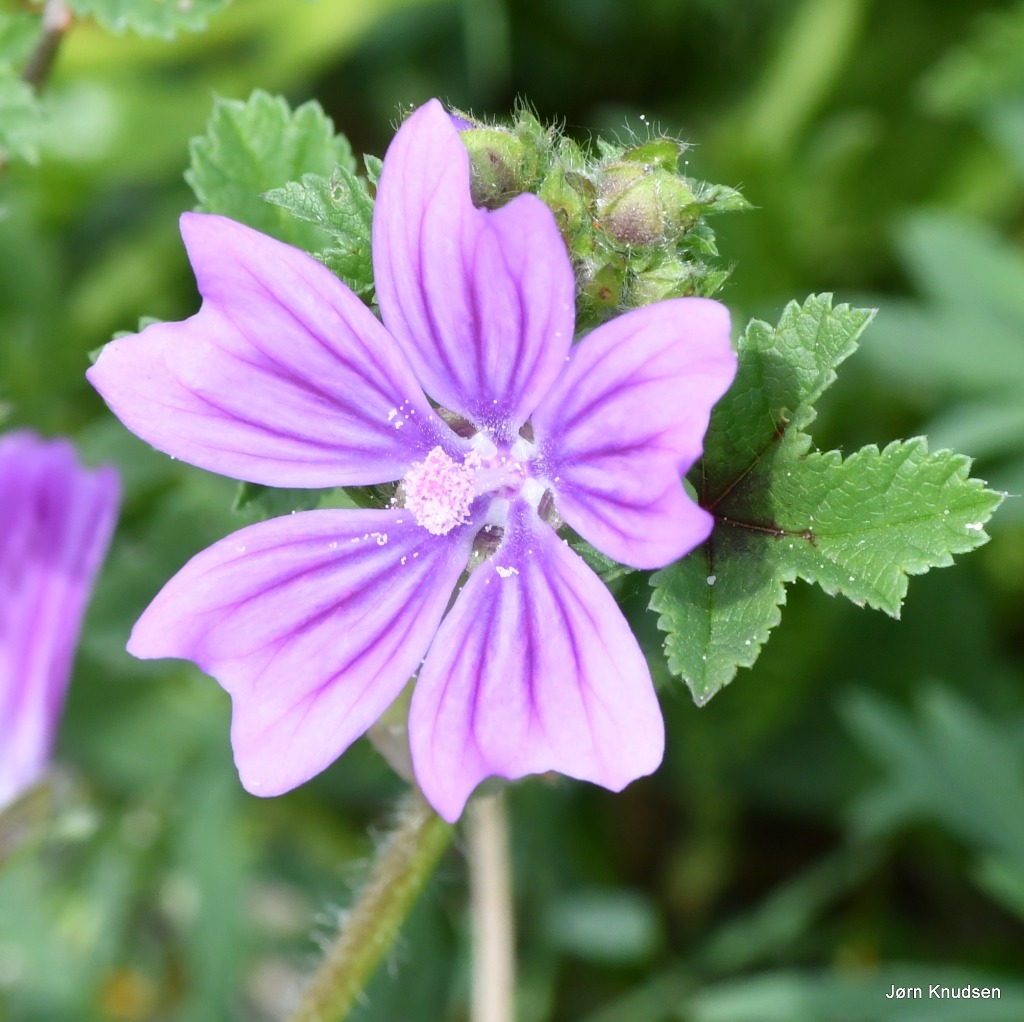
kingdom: Plantae
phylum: Tracheophyta
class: Magnoliopsida
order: Malvales
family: Malvaceae
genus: Malva
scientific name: Malva sylvestris
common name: Almindelig katost
